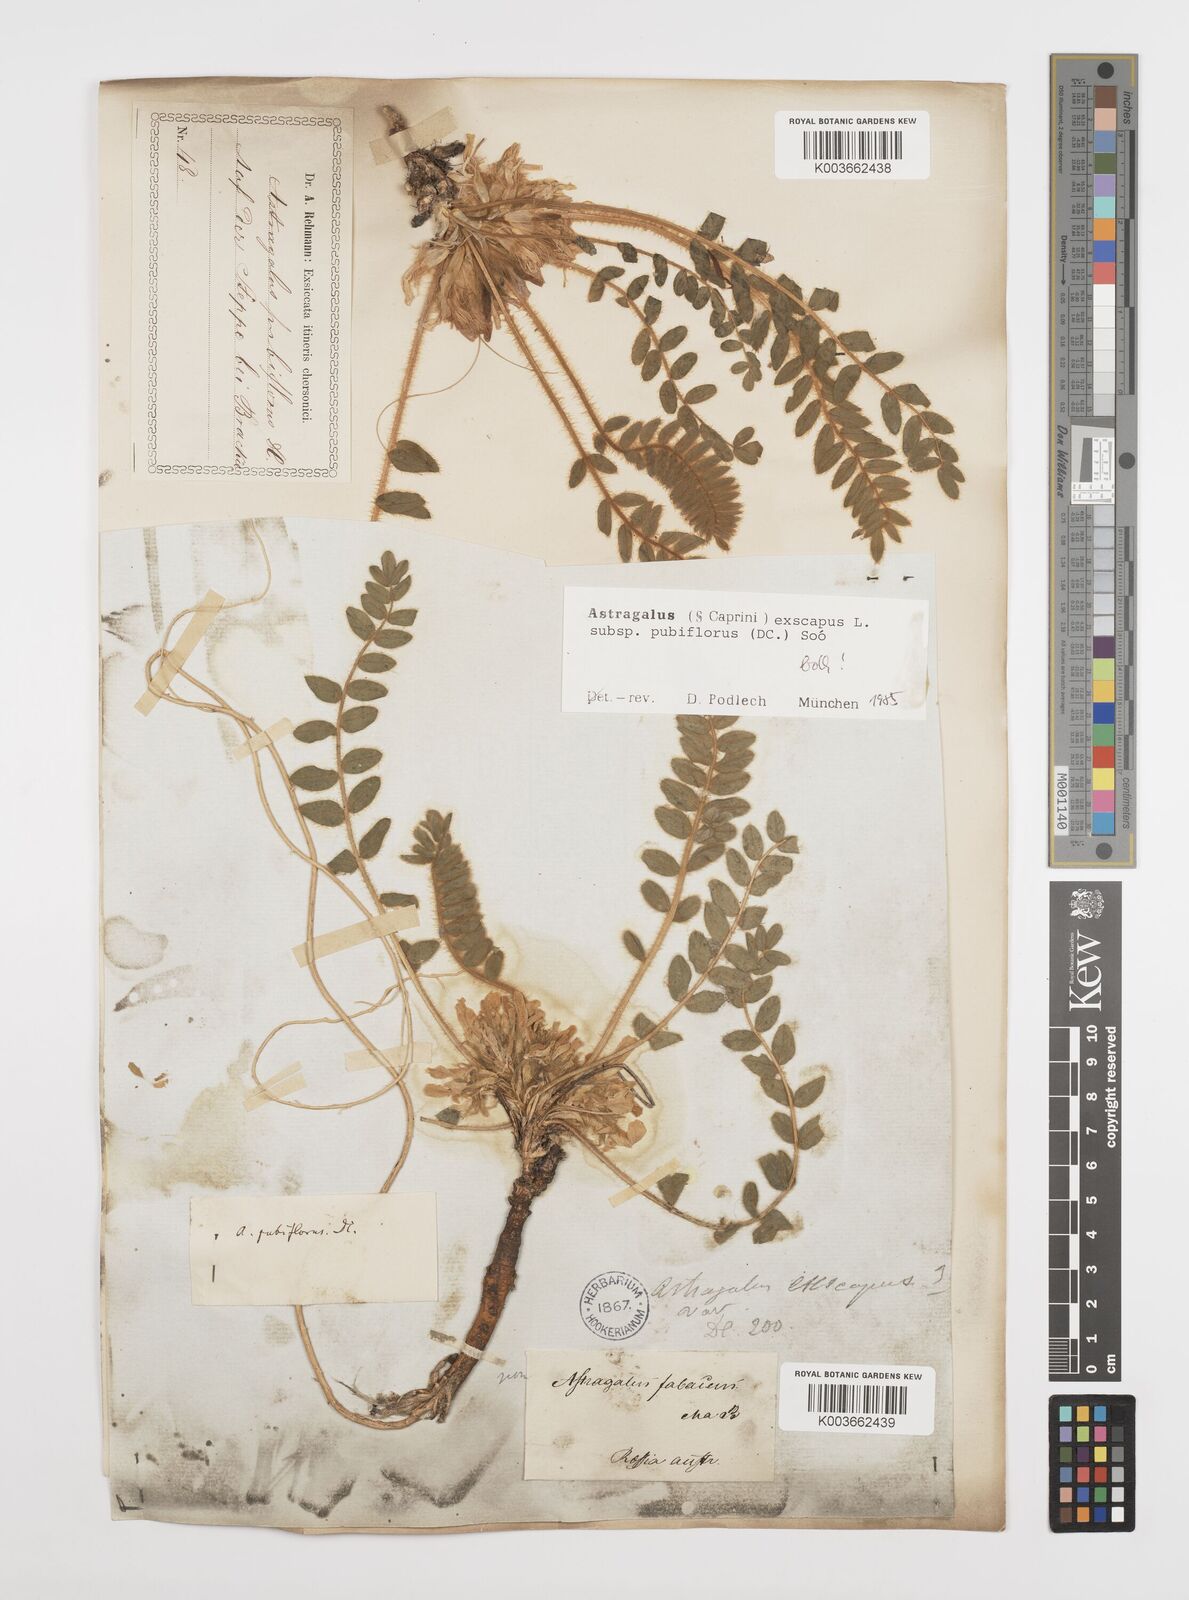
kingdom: Plantae
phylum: Tracheophyta
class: Magnoliopsida
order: Fabales
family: Fabaceae
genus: Astragalus
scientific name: Astragalus exscapus
